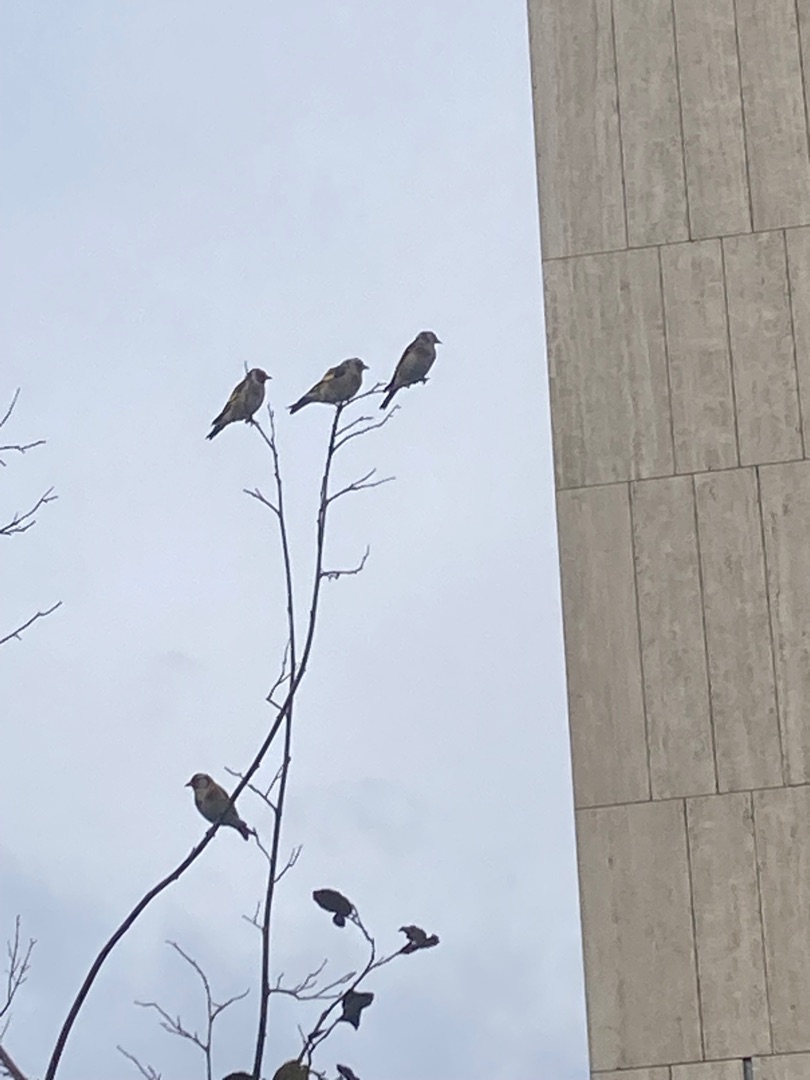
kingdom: Animalia
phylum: Chordata
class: Aves
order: Passeriformes
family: Fringillidae
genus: Carduelis
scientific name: Carduelis carduelis
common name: Stillits
